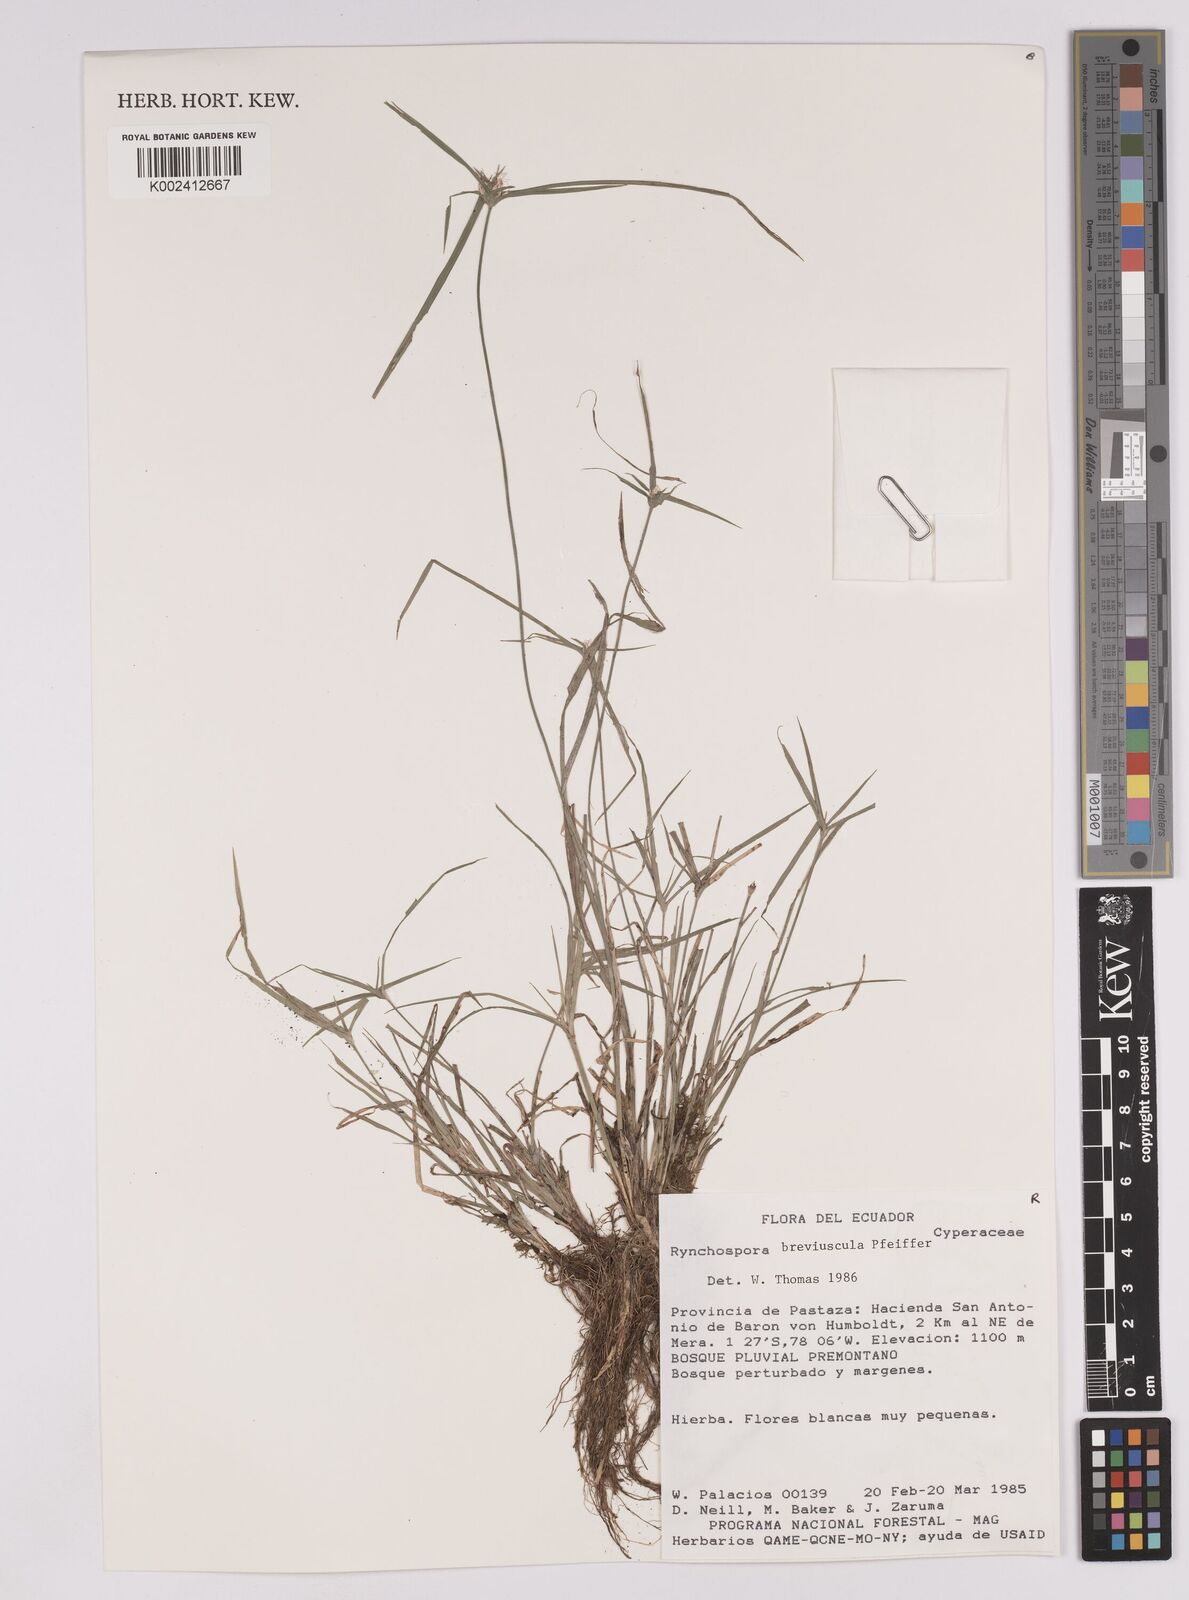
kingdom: Plantae
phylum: Tracheophyta
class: Liliopsida
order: Poales
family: Cyperaceae
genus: Rhynchospora
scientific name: Rhynchospora breviuscula
